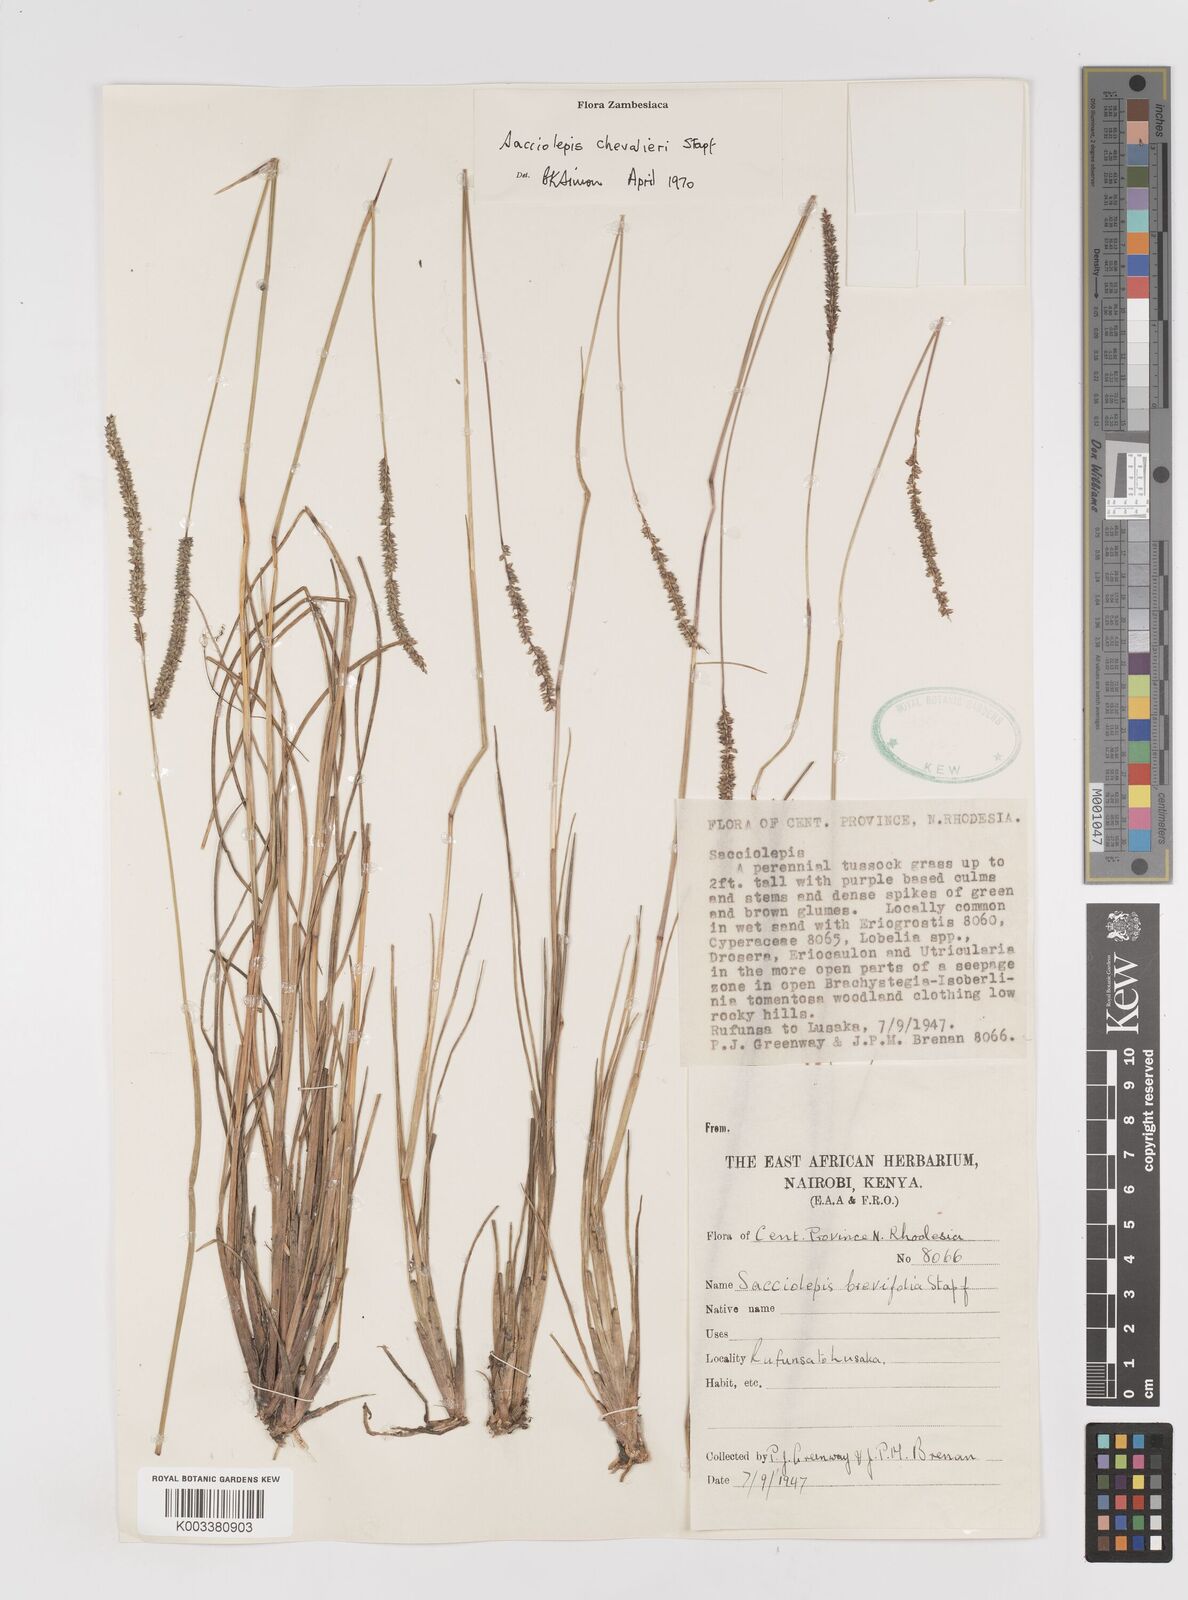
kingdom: Plantae
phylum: Tracheophyta
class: Liliopsida
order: Poales
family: Poaceae
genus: Sacciolepis
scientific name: Sacciolepis chevalieri
